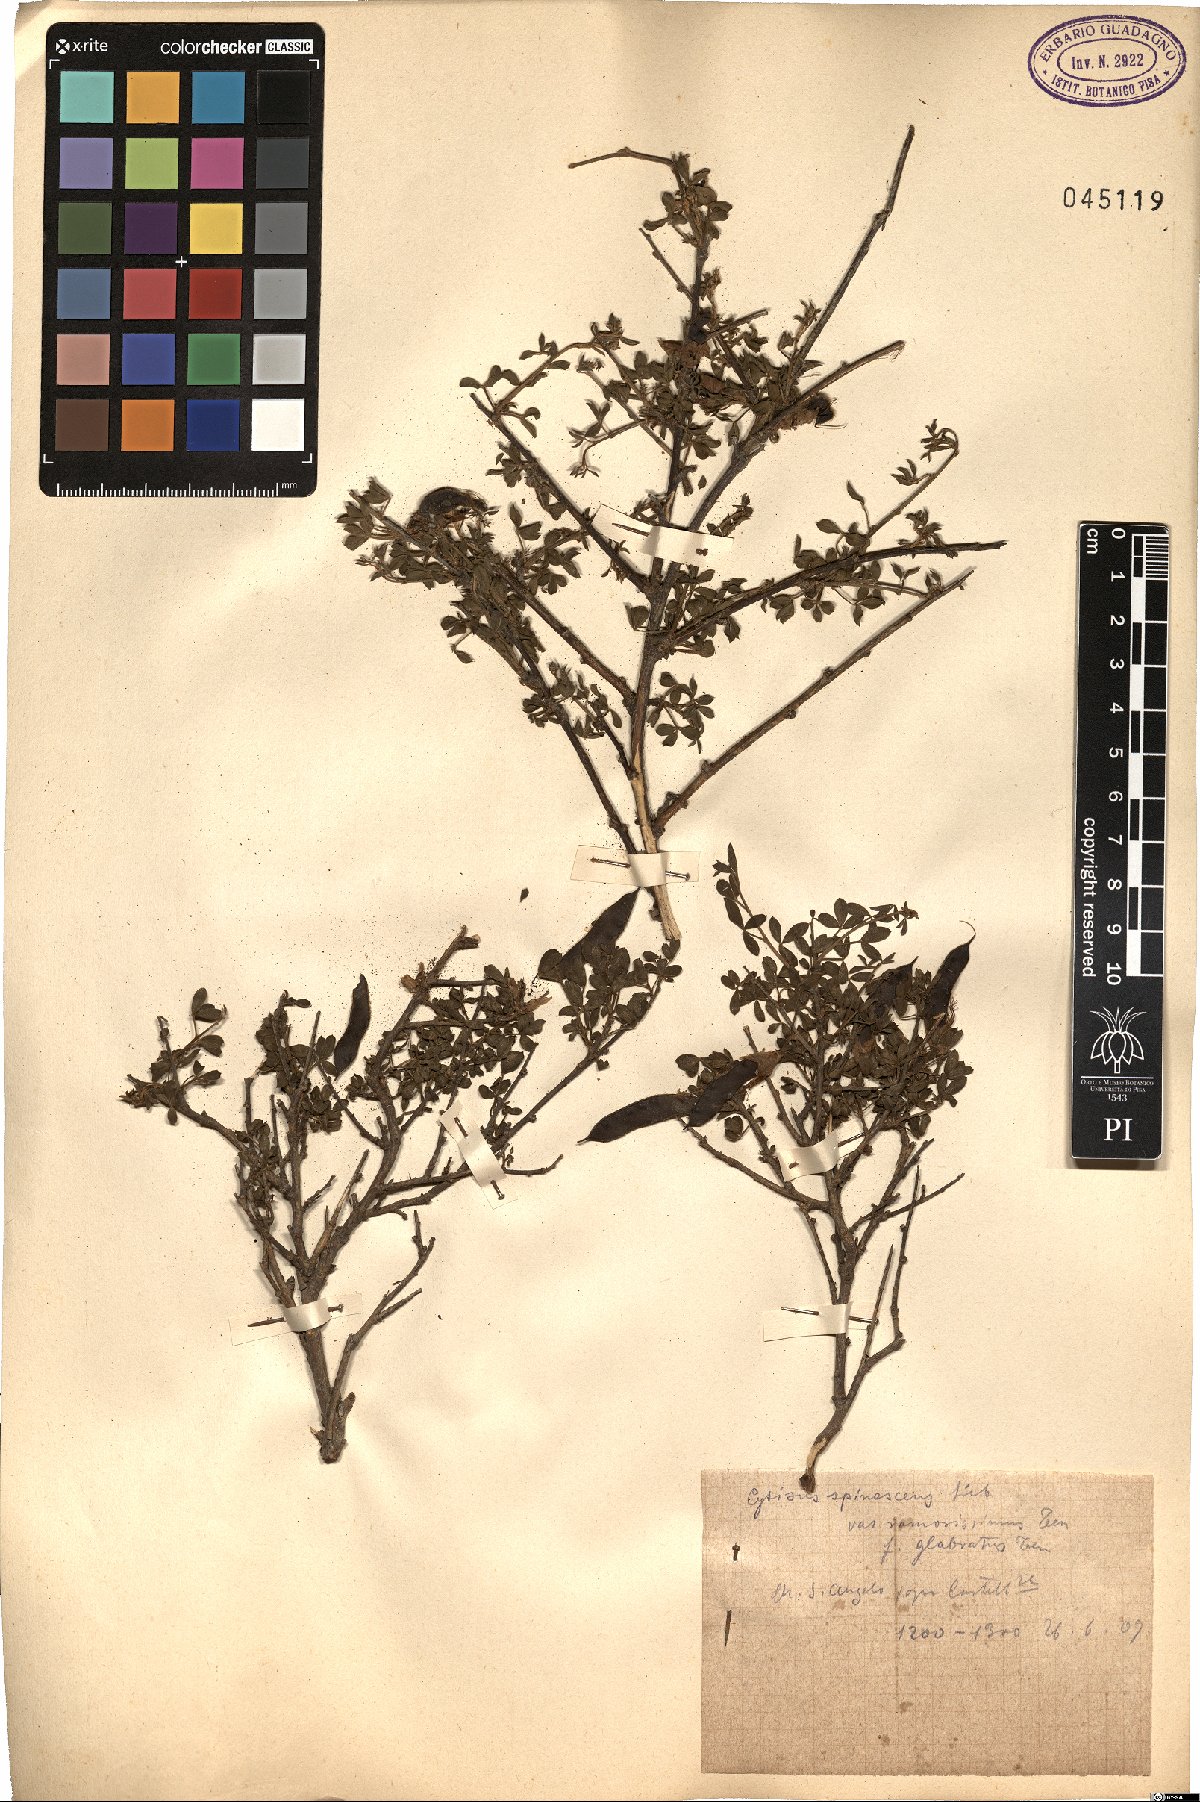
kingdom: Plantae
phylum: Tracheophyta
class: Magnoliopsida
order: Fabales
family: Fabaceae
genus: Chamaecytisus
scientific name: Chamaecytisus spinescens
